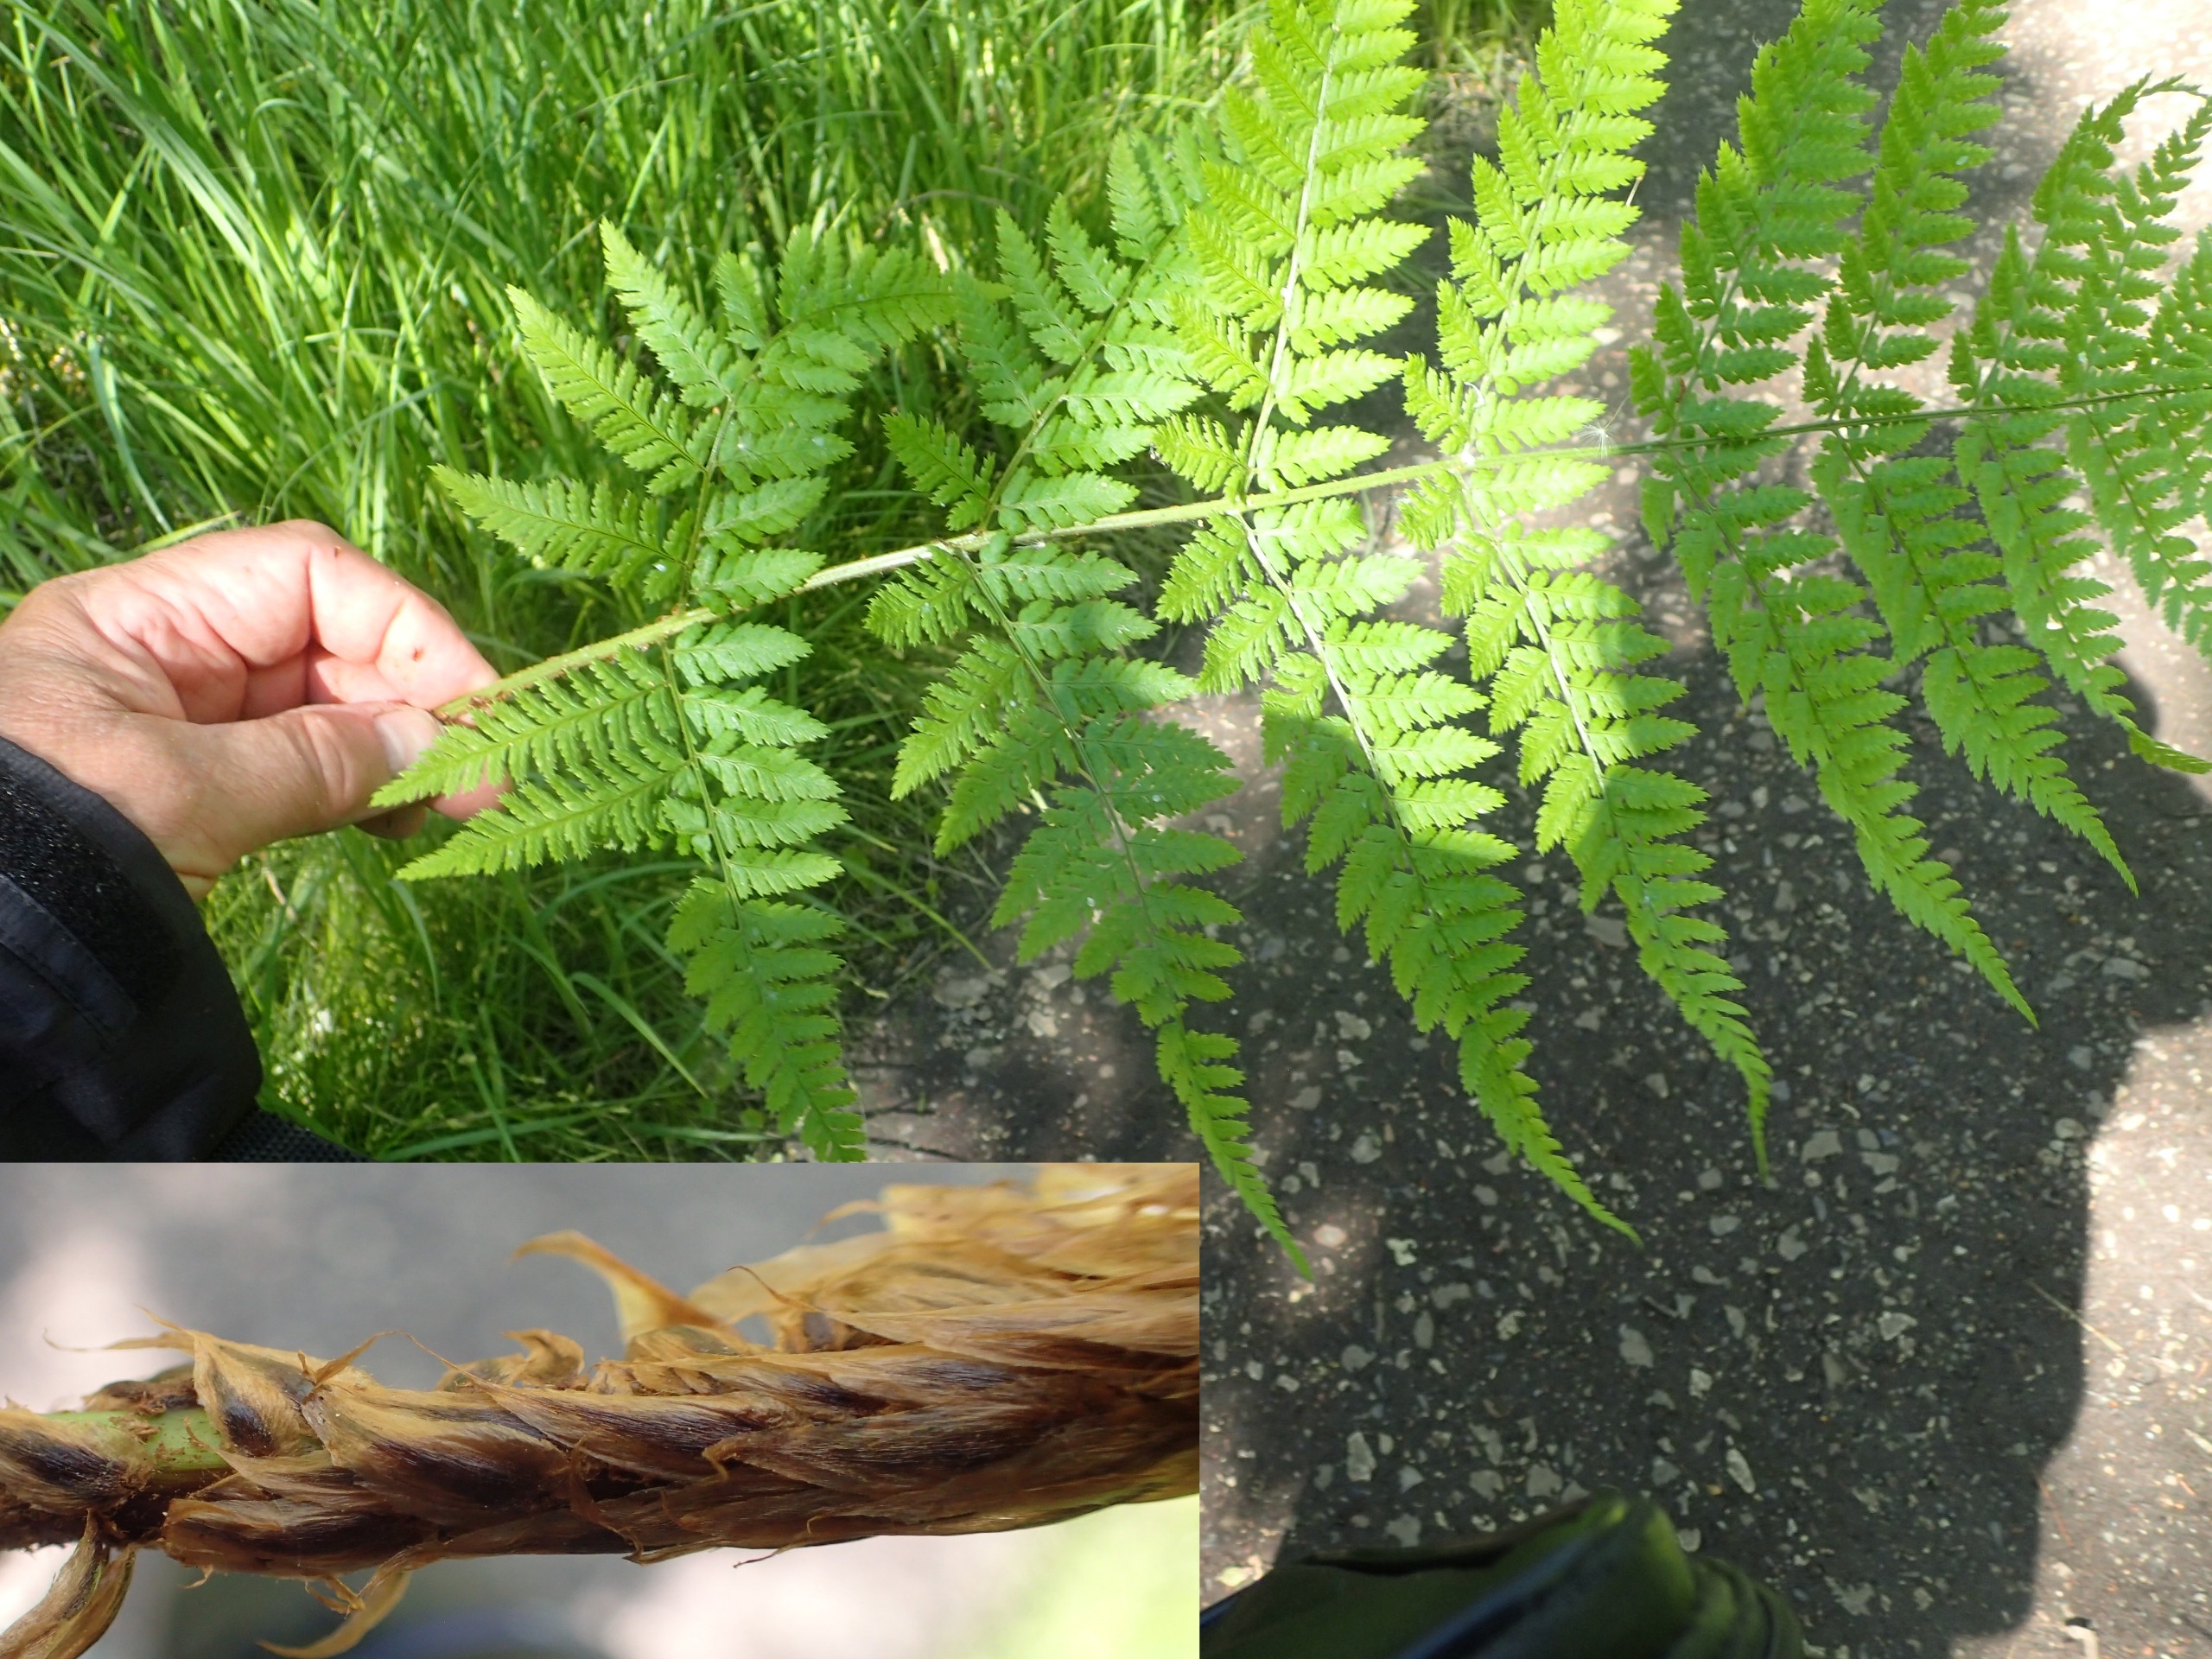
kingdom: Plantae
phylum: Tracheophyta
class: Polypodiopsida
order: Polypodiales
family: Dryopteridaceae
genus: Dryopteris
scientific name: Dryopteris dilatata
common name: Bredbladet mangeløv
